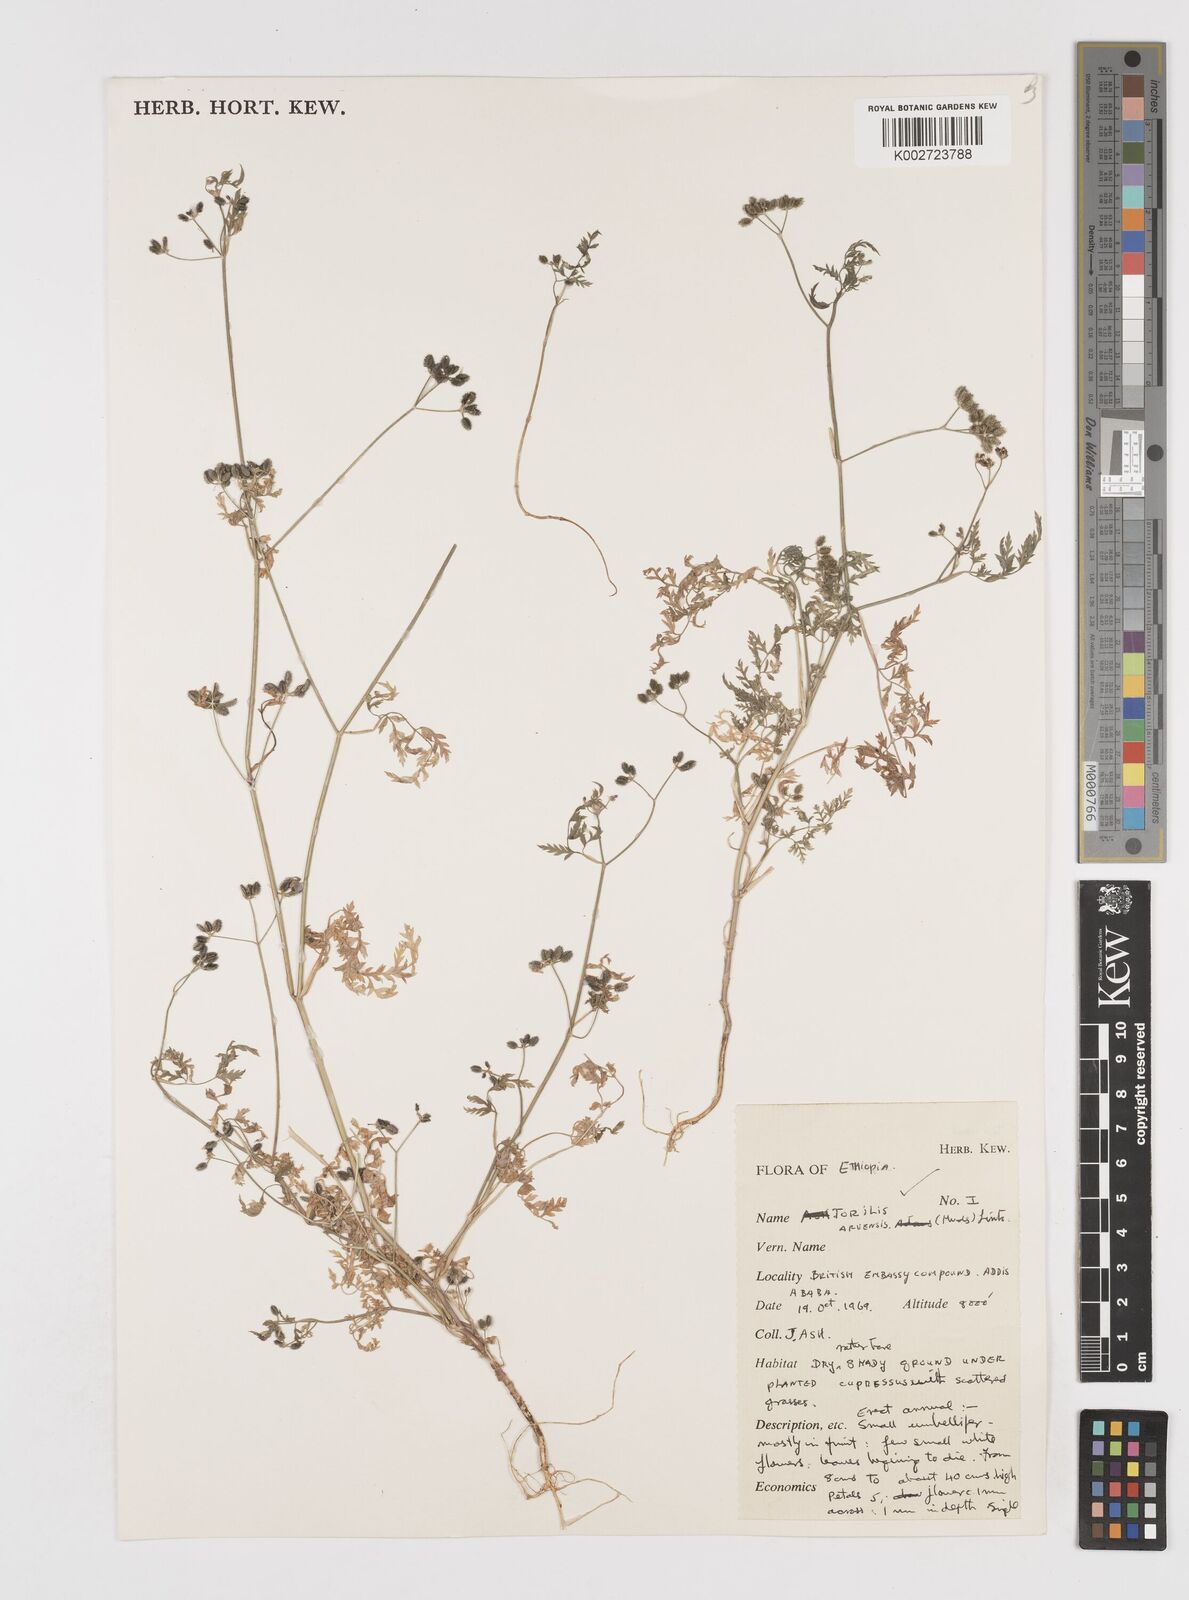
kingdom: Plantae
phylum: Tracheophyta
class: Magnoliopsida
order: Apiales
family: Apiaceae
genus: Torilis
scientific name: Torilis arvensis
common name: Spreading hedge-parsley
